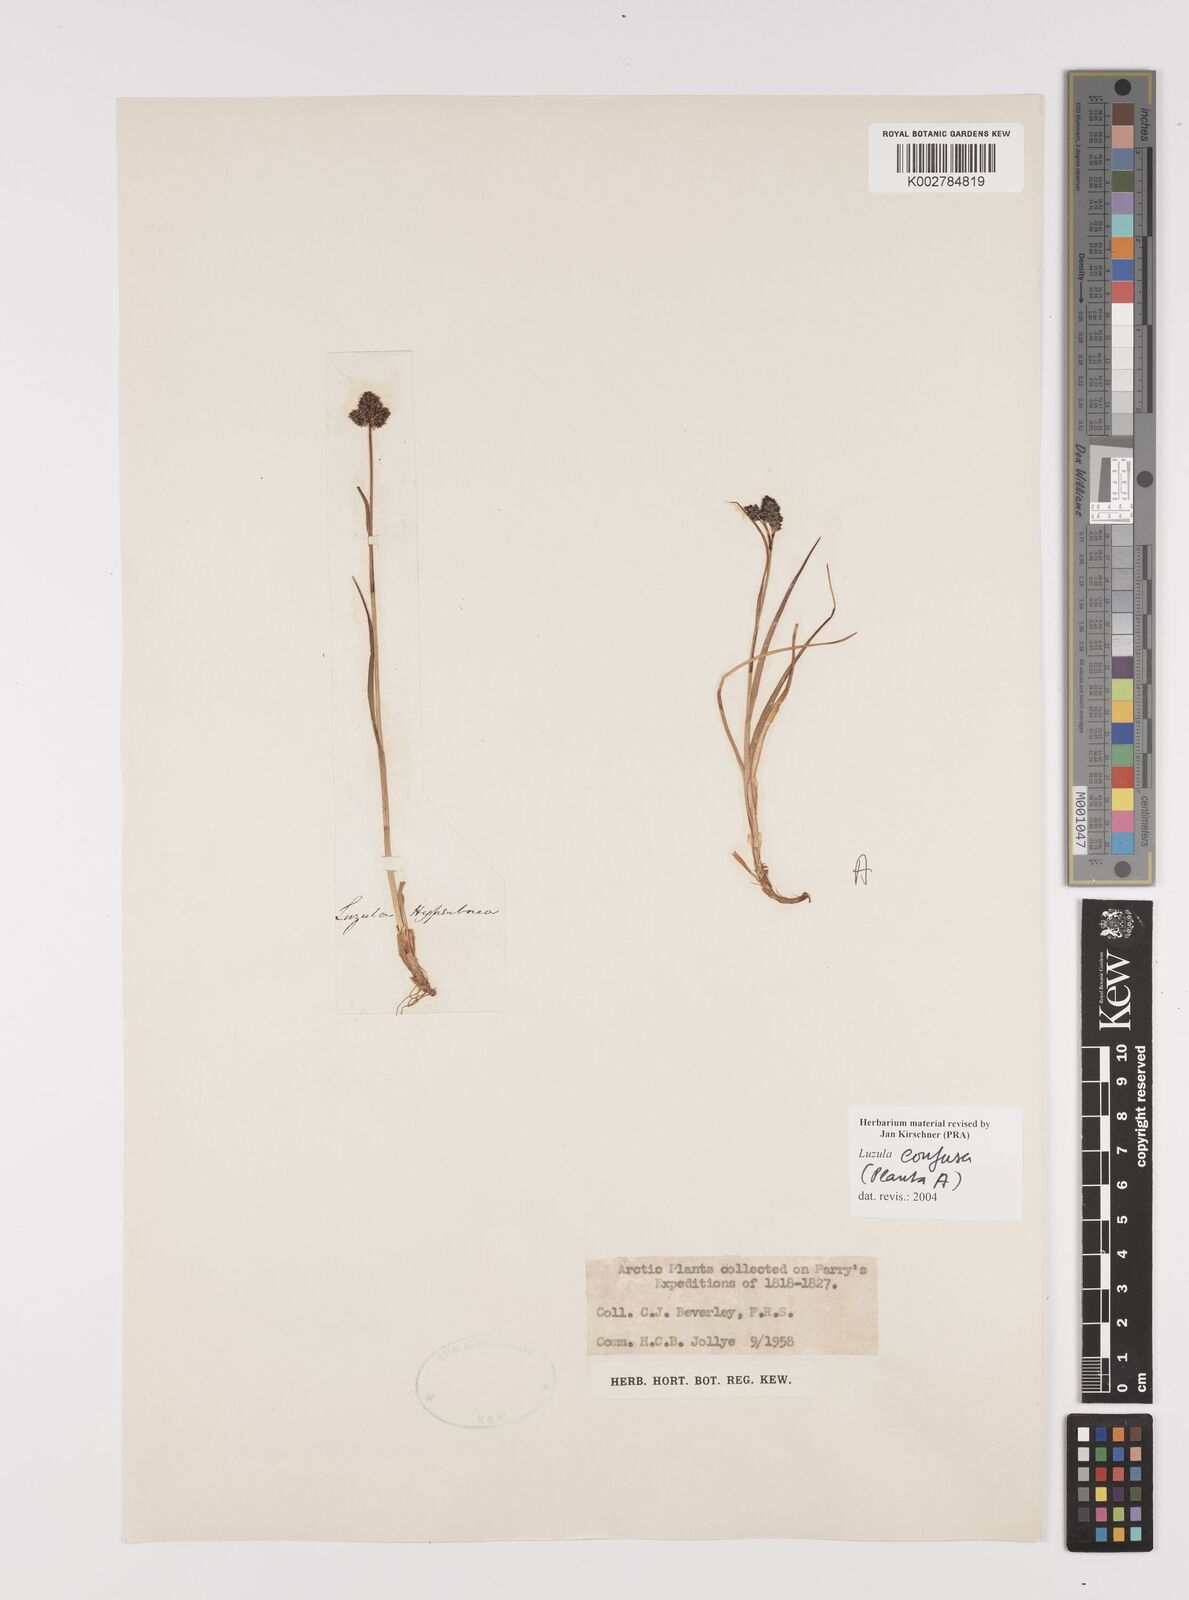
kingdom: Plantae
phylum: Tracheophyta
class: Liliopsida
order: Poales
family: Juncaceae
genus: Luzula
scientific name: Luzula confusa
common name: Northern wood rush
